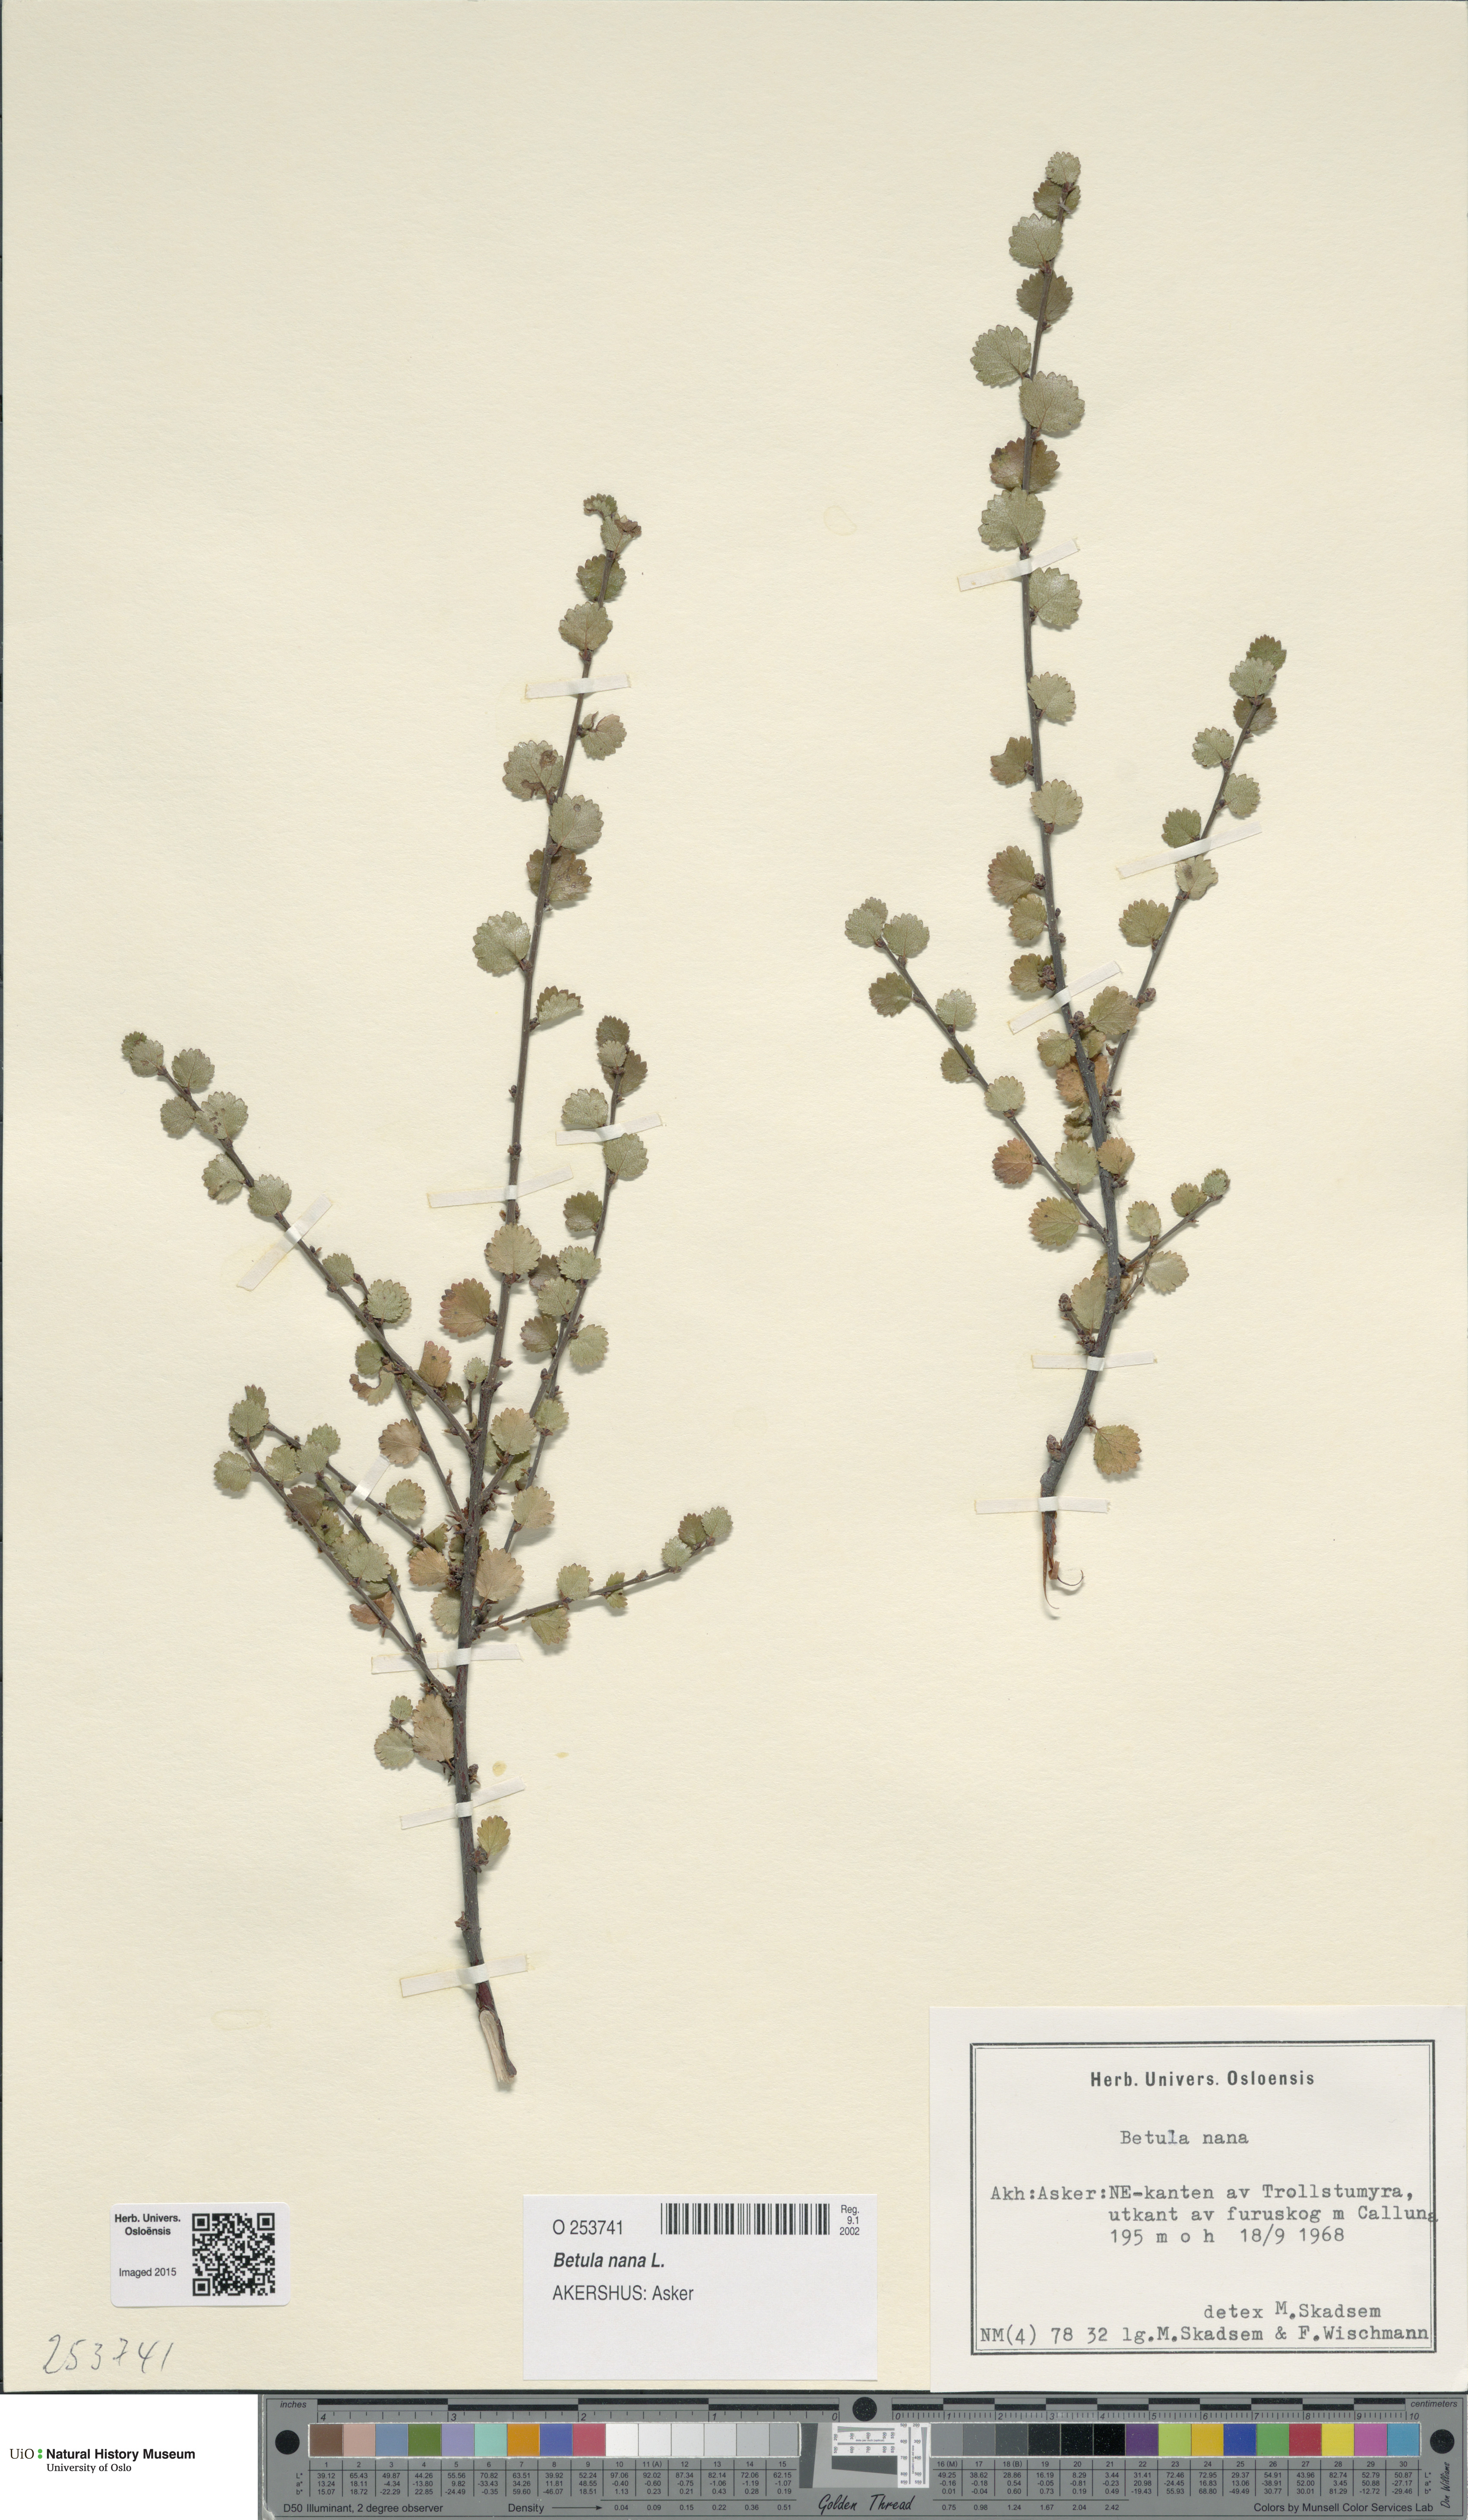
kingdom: Plantae
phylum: Tracheophyta
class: Magnoliopsida
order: Fagales
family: Betulaceae
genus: Betula
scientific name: Betula nana
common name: Arctic dwarf birch
